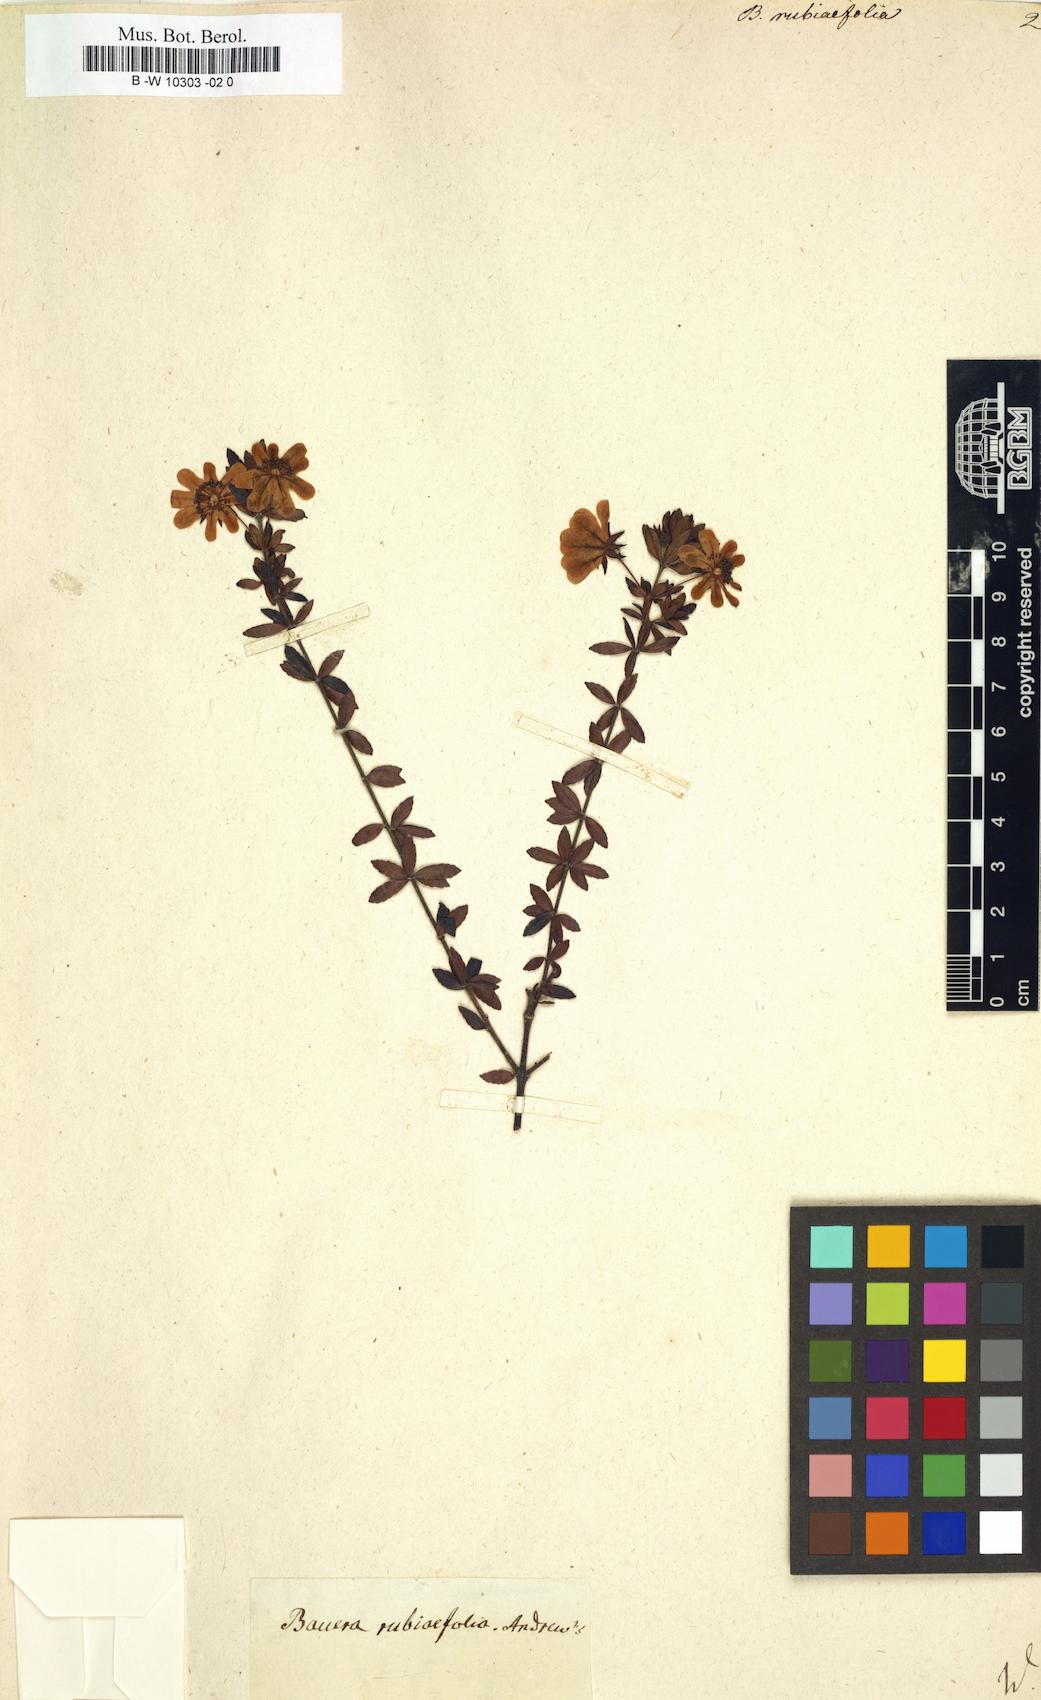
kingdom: Plantae
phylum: Tracheophyta
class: Magnoliopsida
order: Oxalidales
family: Cunoniaceae
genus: Bauera
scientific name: Bauera rubiifolia
